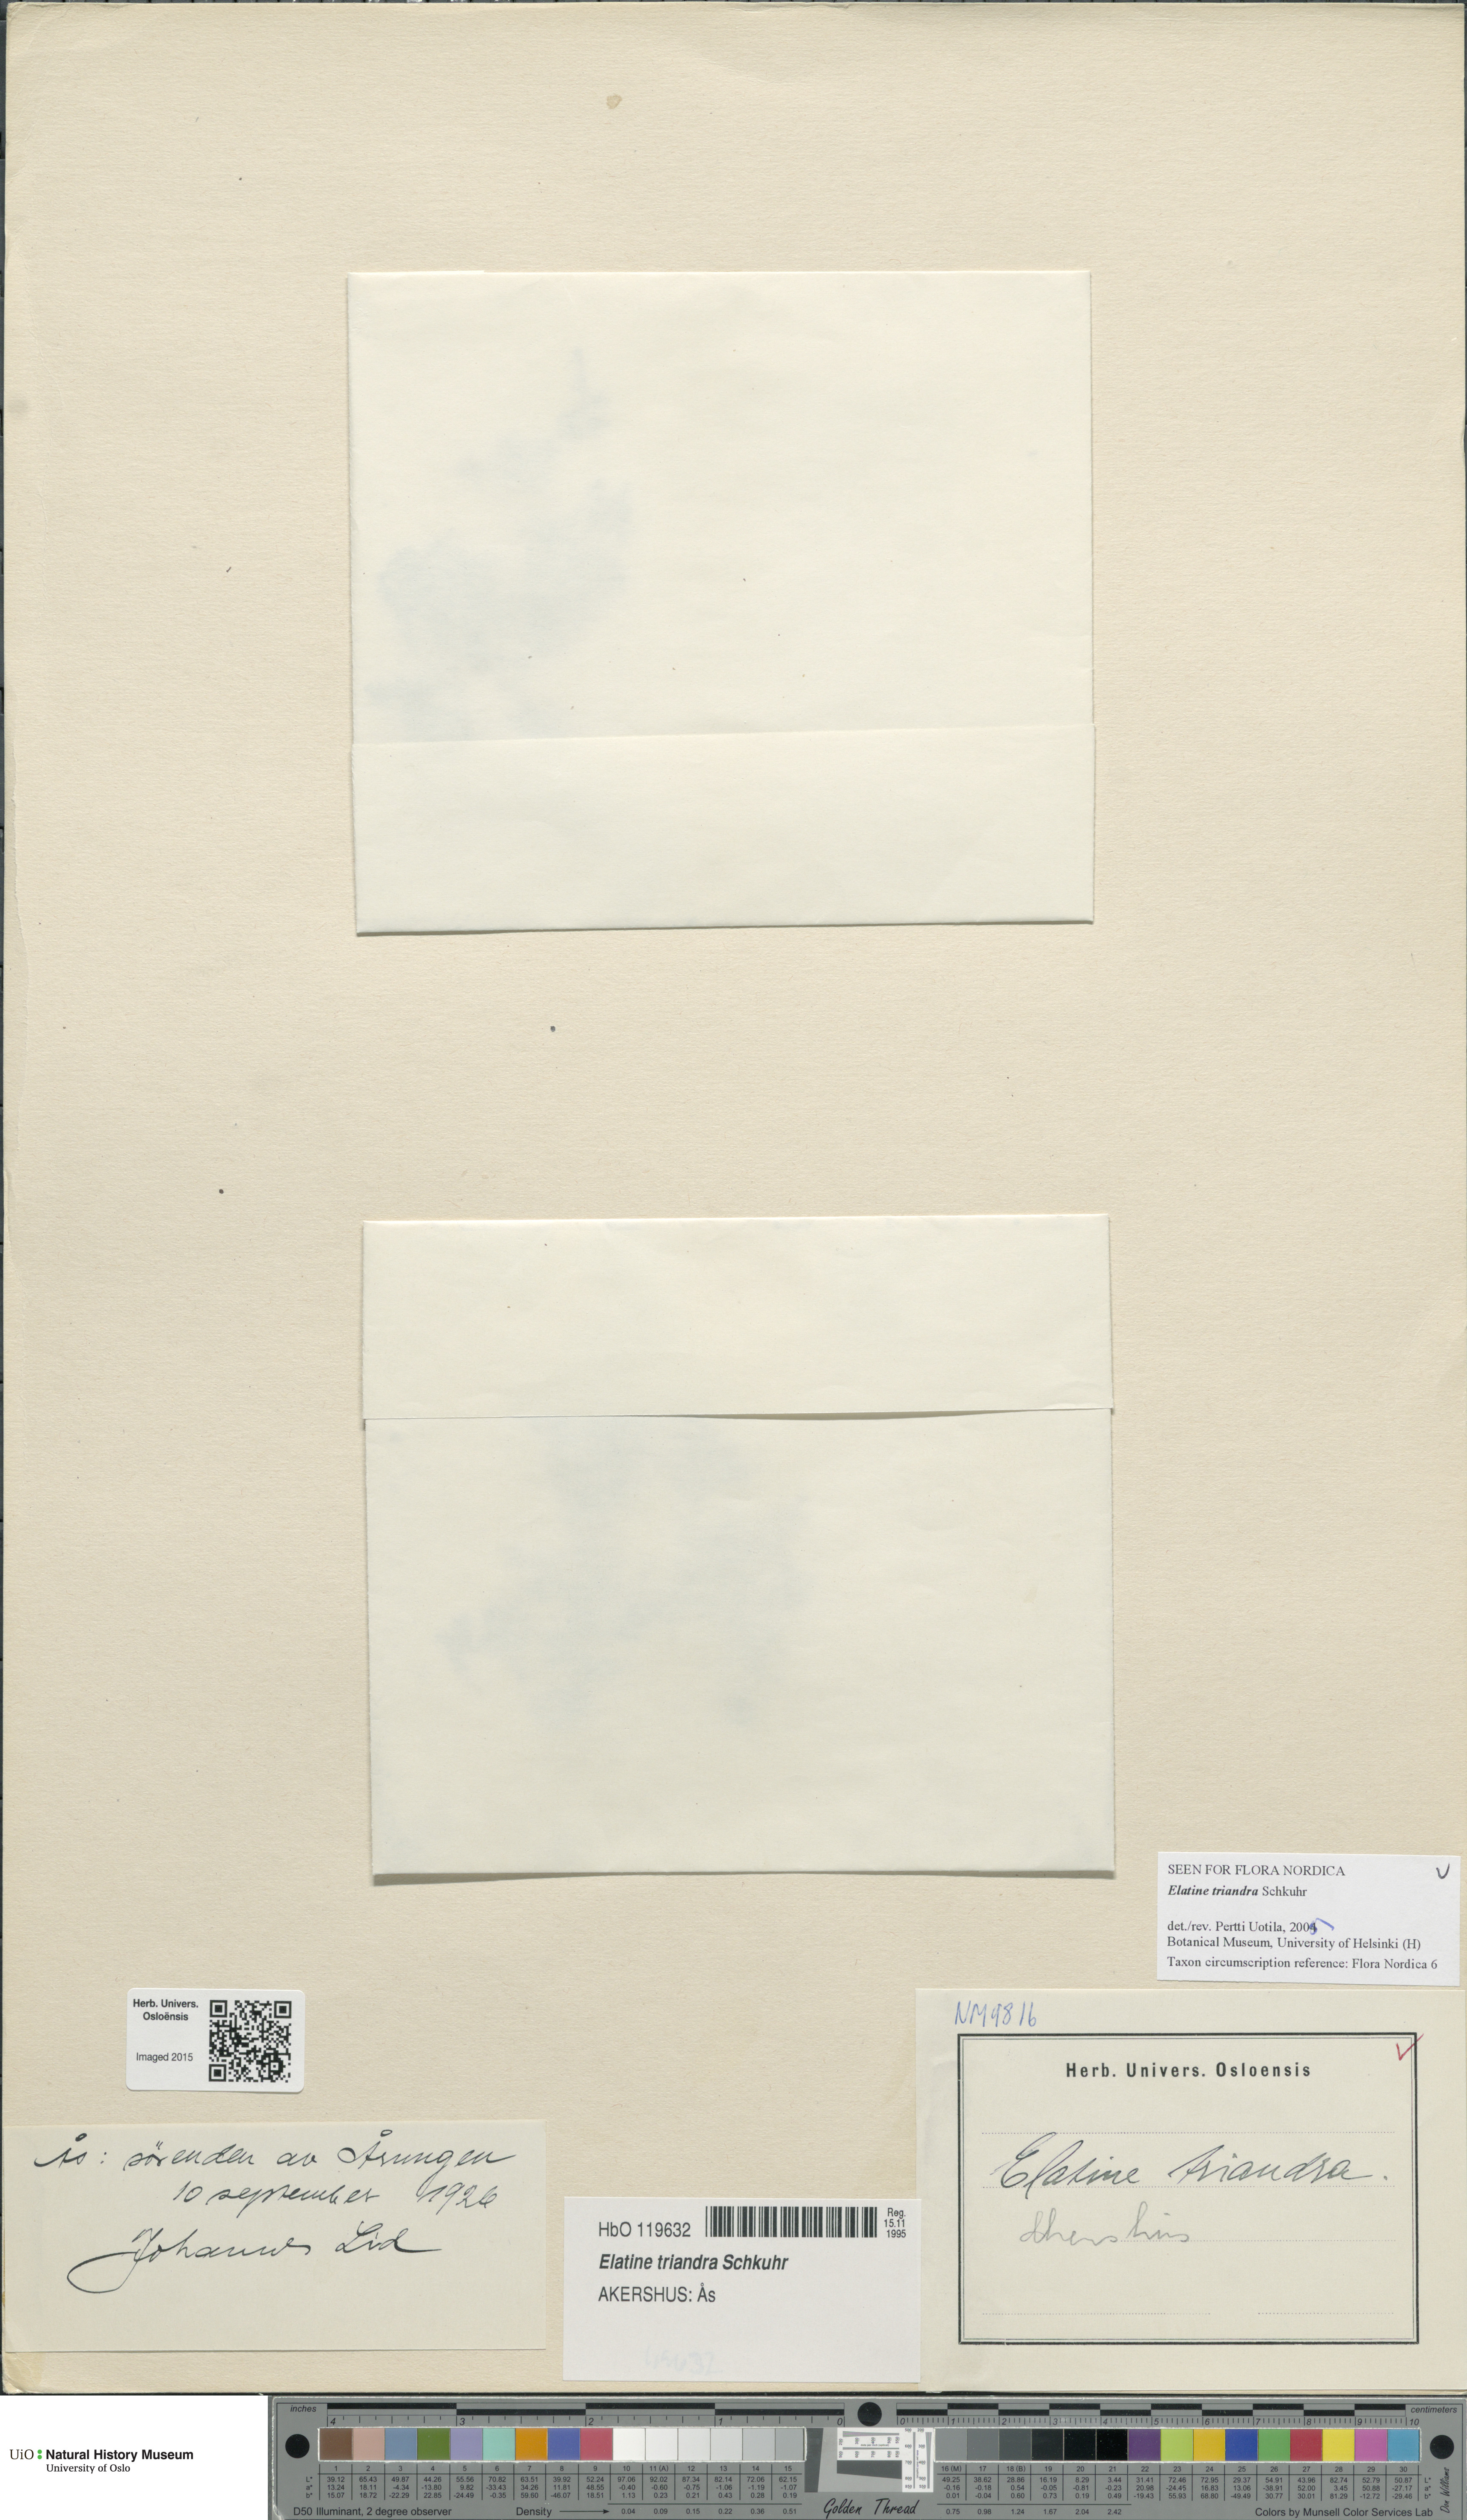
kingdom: Plantae
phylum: Tracheophyta
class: Magnoliopsida
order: Malpighiales
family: Elatinaceae
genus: Elatine
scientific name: Elatine triandra
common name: Three-stamened waterwort
